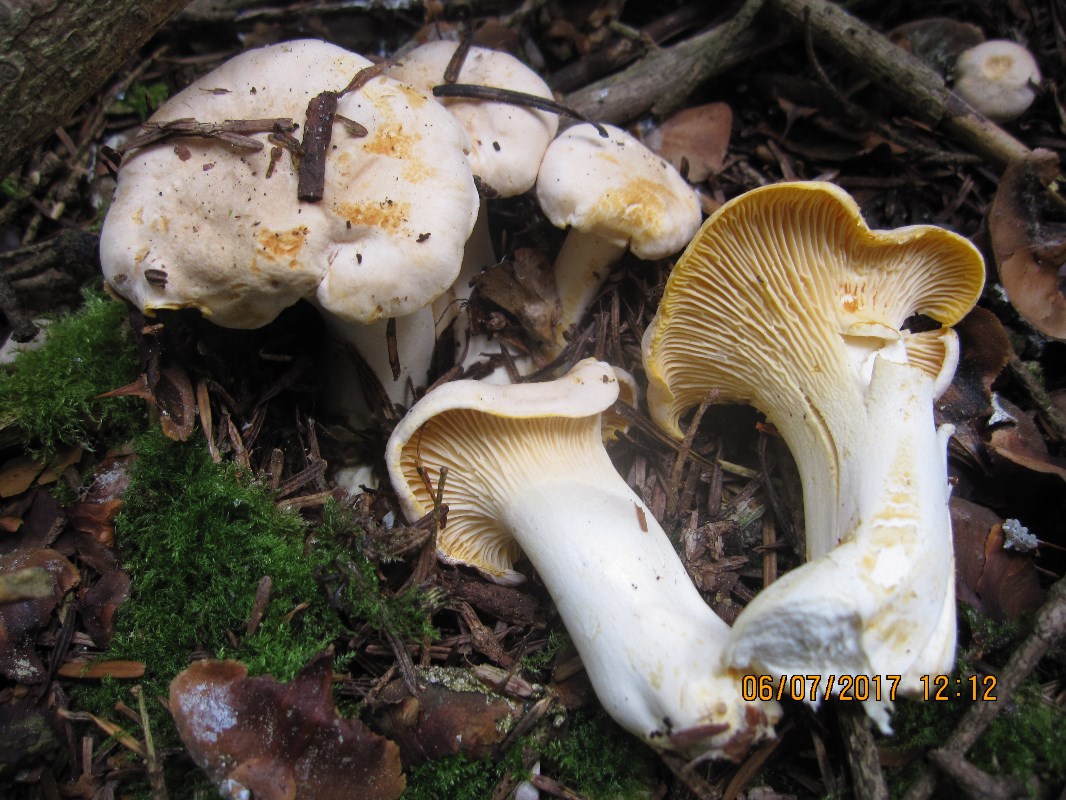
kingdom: Fungi
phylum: Basidiomycota
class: Agaricomycetes
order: Cantharellales
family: Hydnaceae
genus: Cantharellus
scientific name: Cantharellus pallens
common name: bleg kantarel
